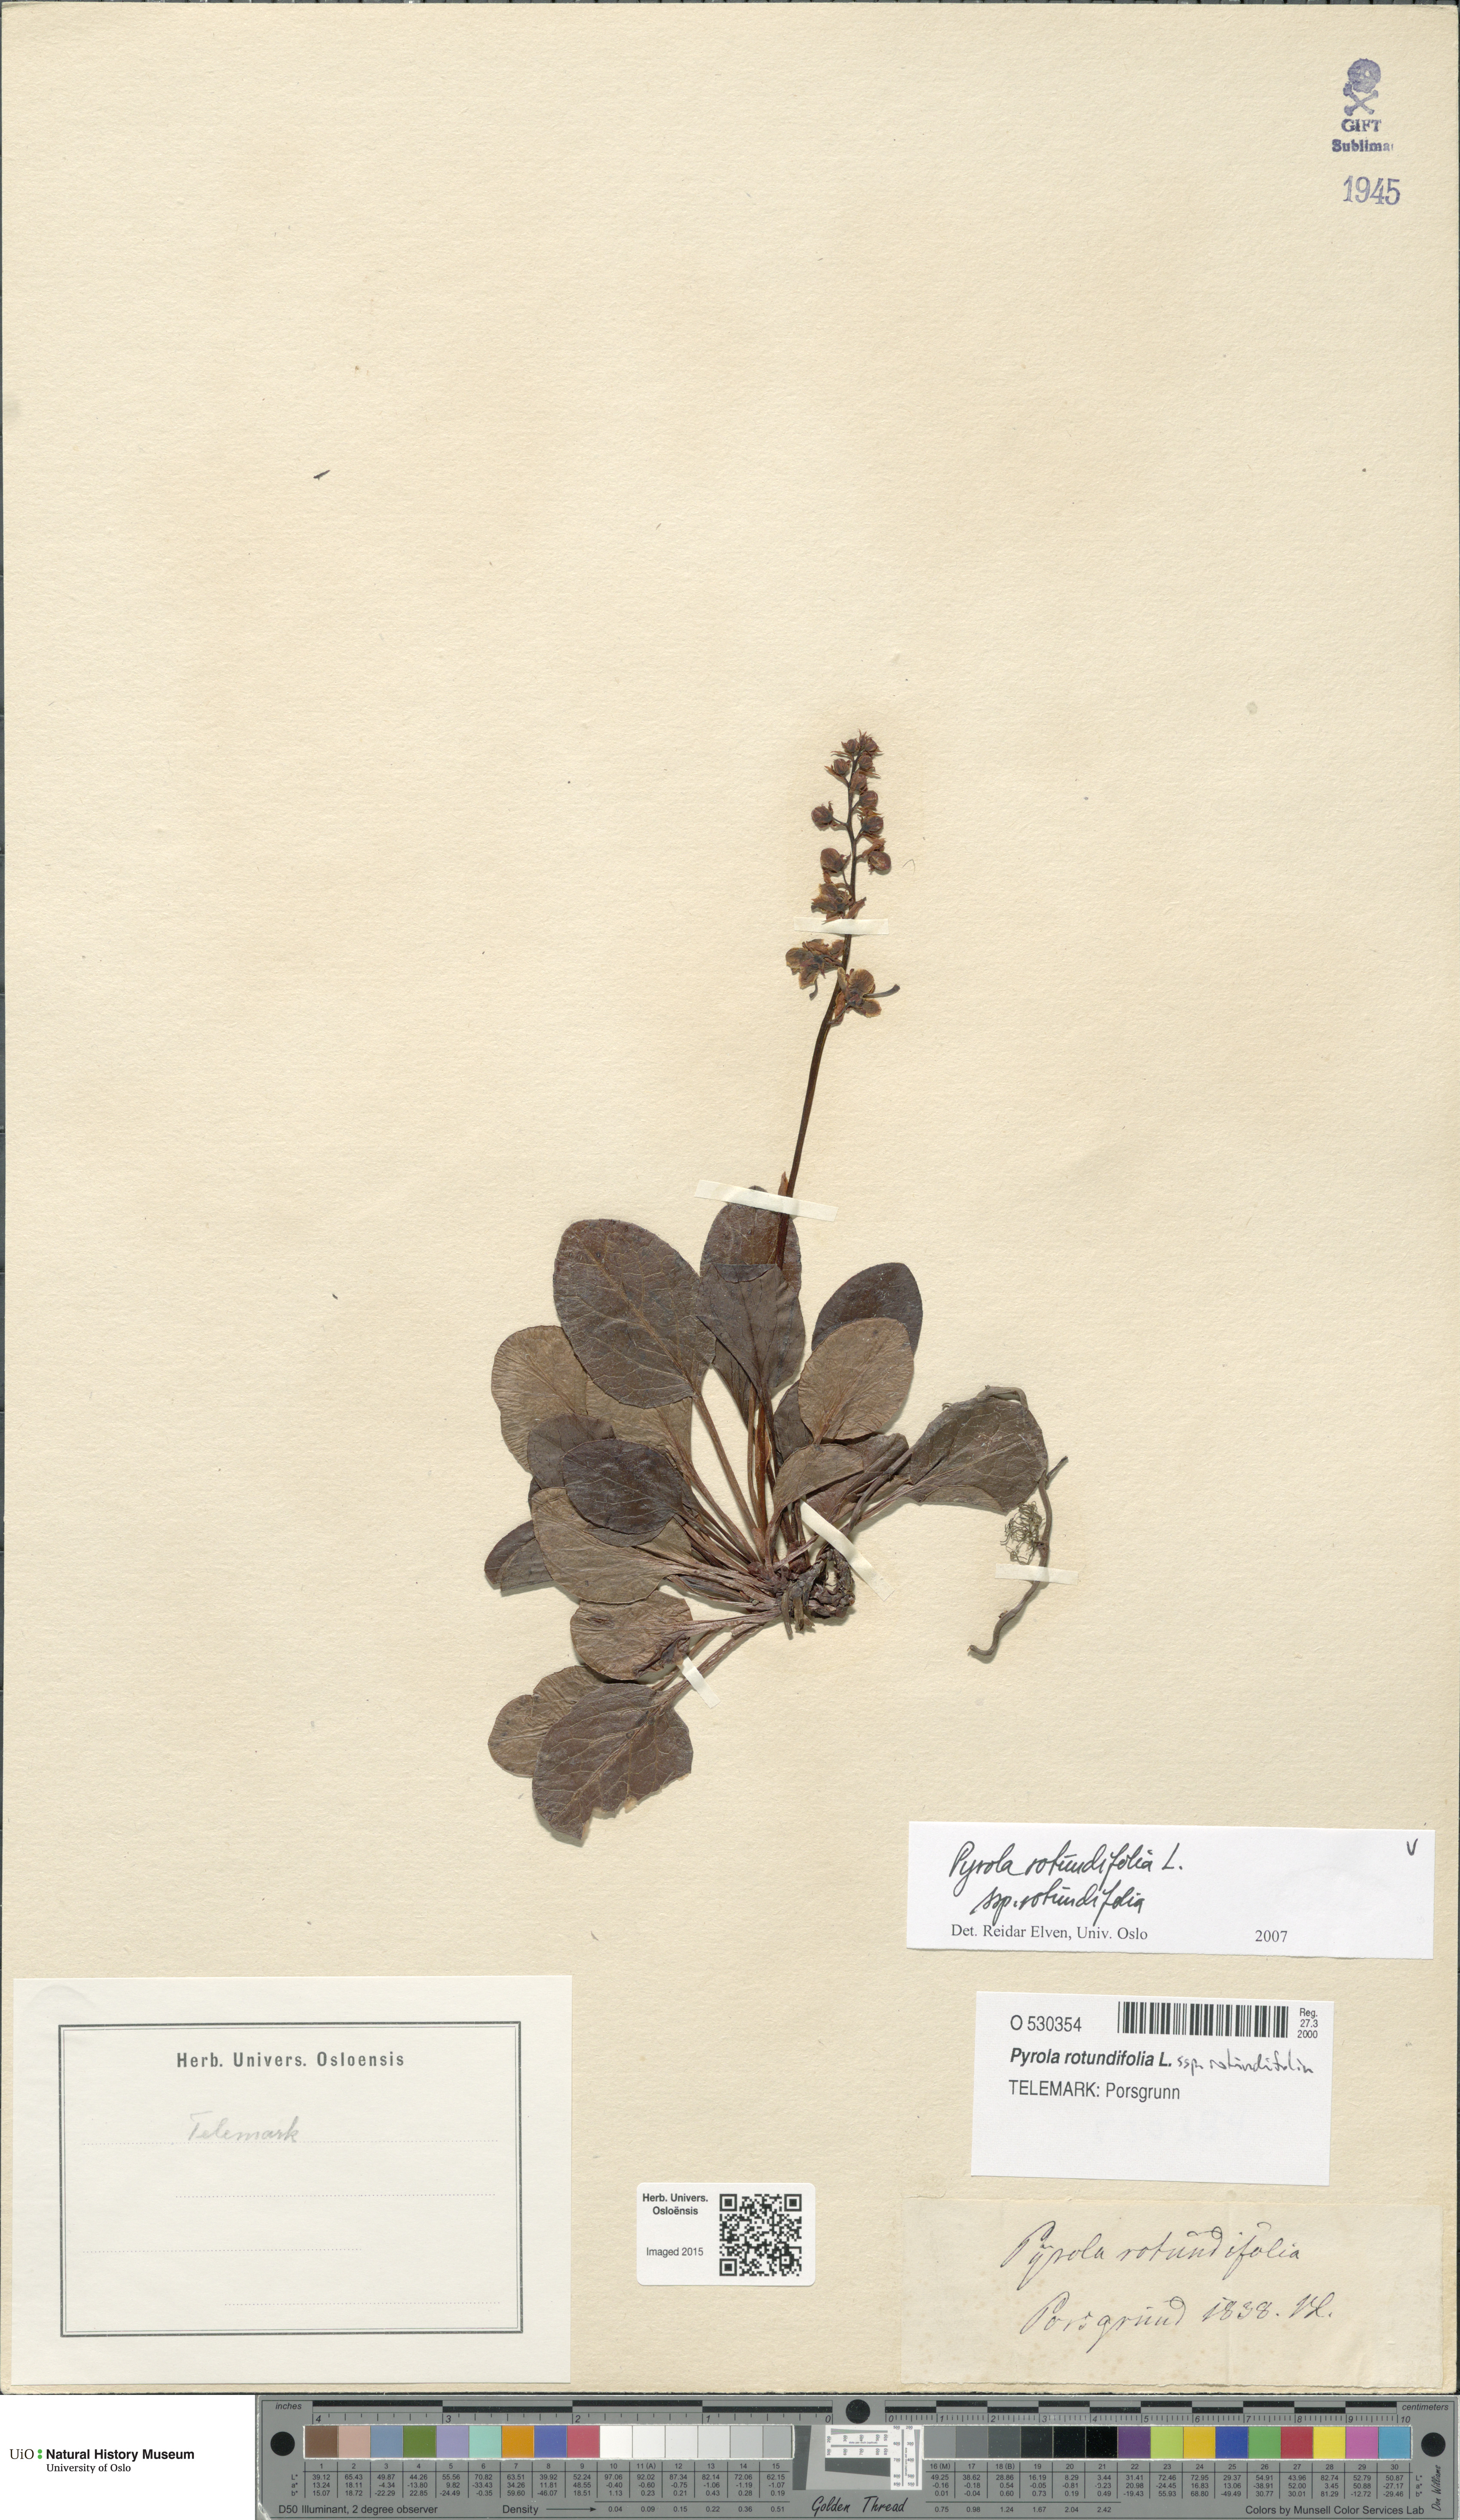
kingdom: Plantae
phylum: Tracheophyta
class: Magnoliopsida
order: Ericales
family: Ericaceae
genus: Pyrola
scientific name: Pyrola rotundifolia
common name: Round-leaved wintergreen
